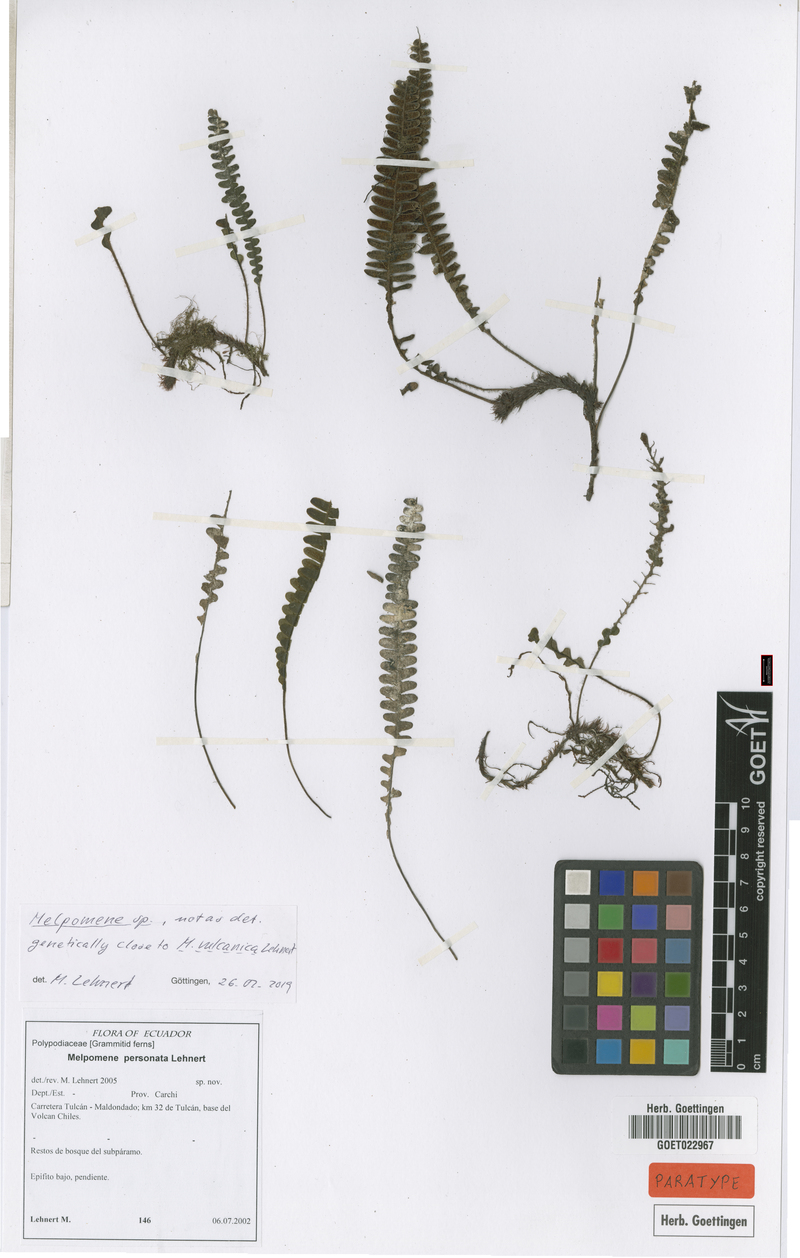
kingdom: Plantae
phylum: Tracheophyta
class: Polypodiopsida
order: Polypodiales
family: Polypodiaceae
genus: Melpomene
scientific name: Melpomene personata
